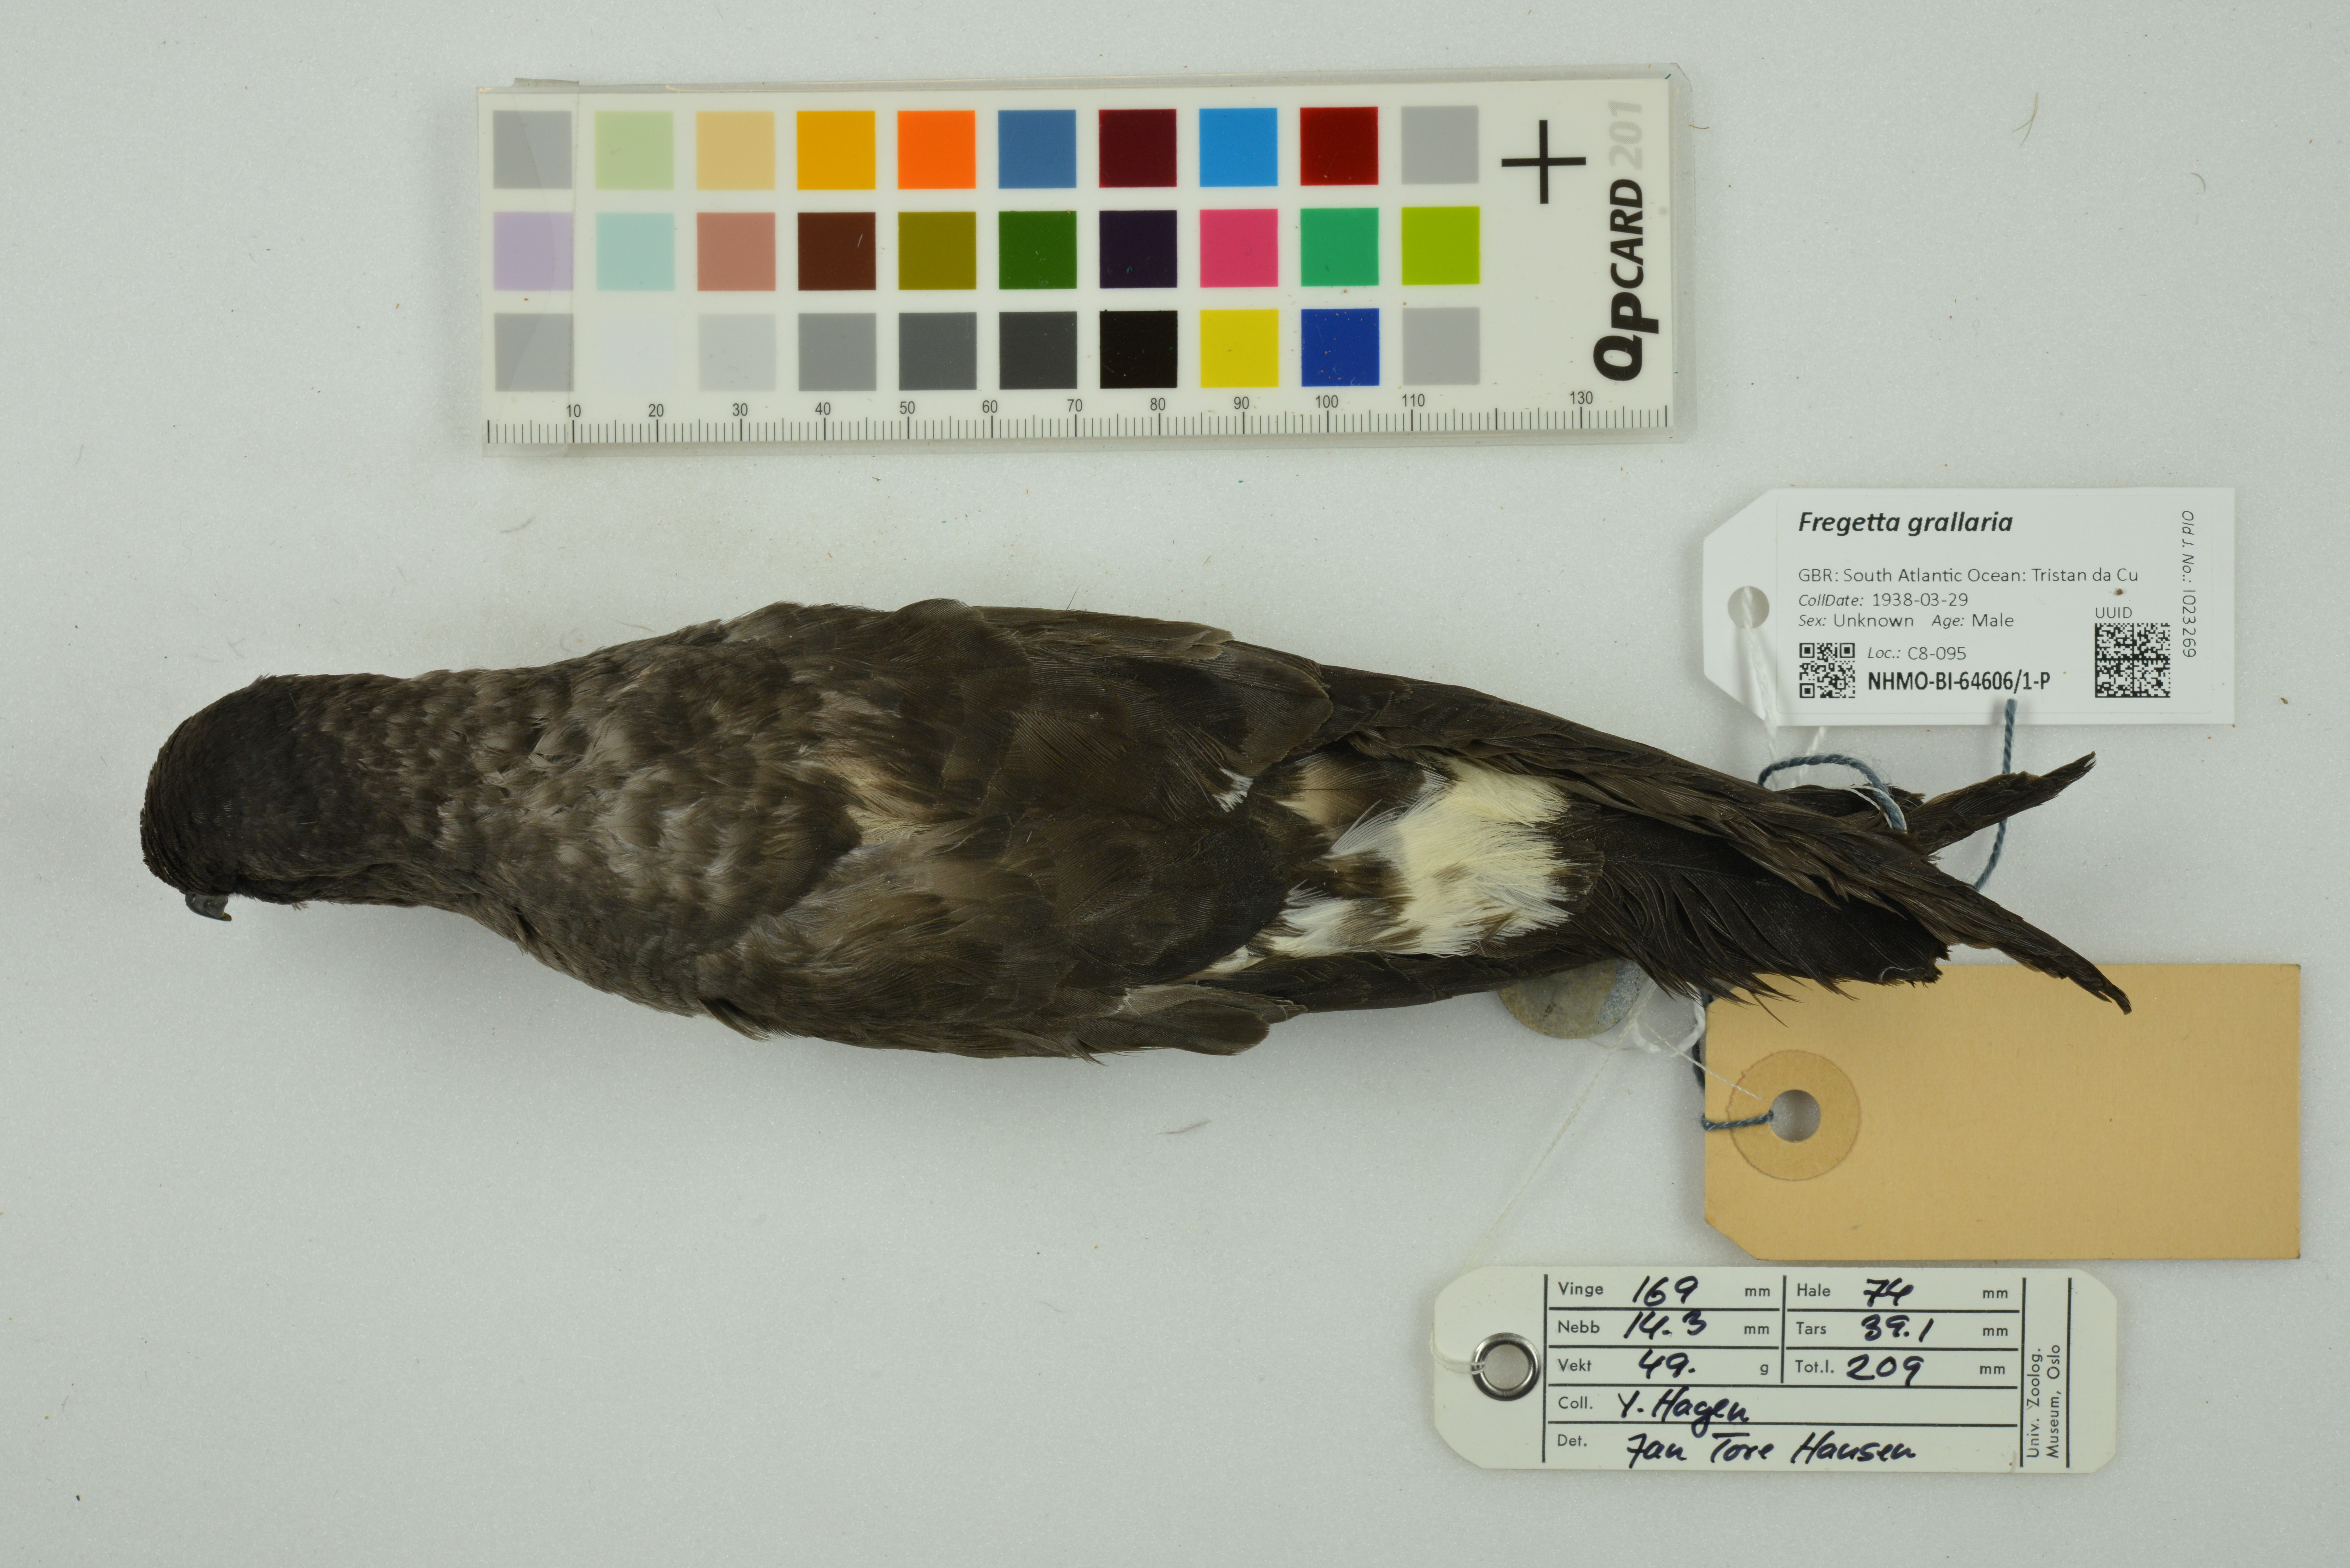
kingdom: Animalia
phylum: Chordata
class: Aves
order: Procellariiformes
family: Hydrobatidae
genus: Fregetta
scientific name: Fregetta grallaria
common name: White-bellied storm-petrel
